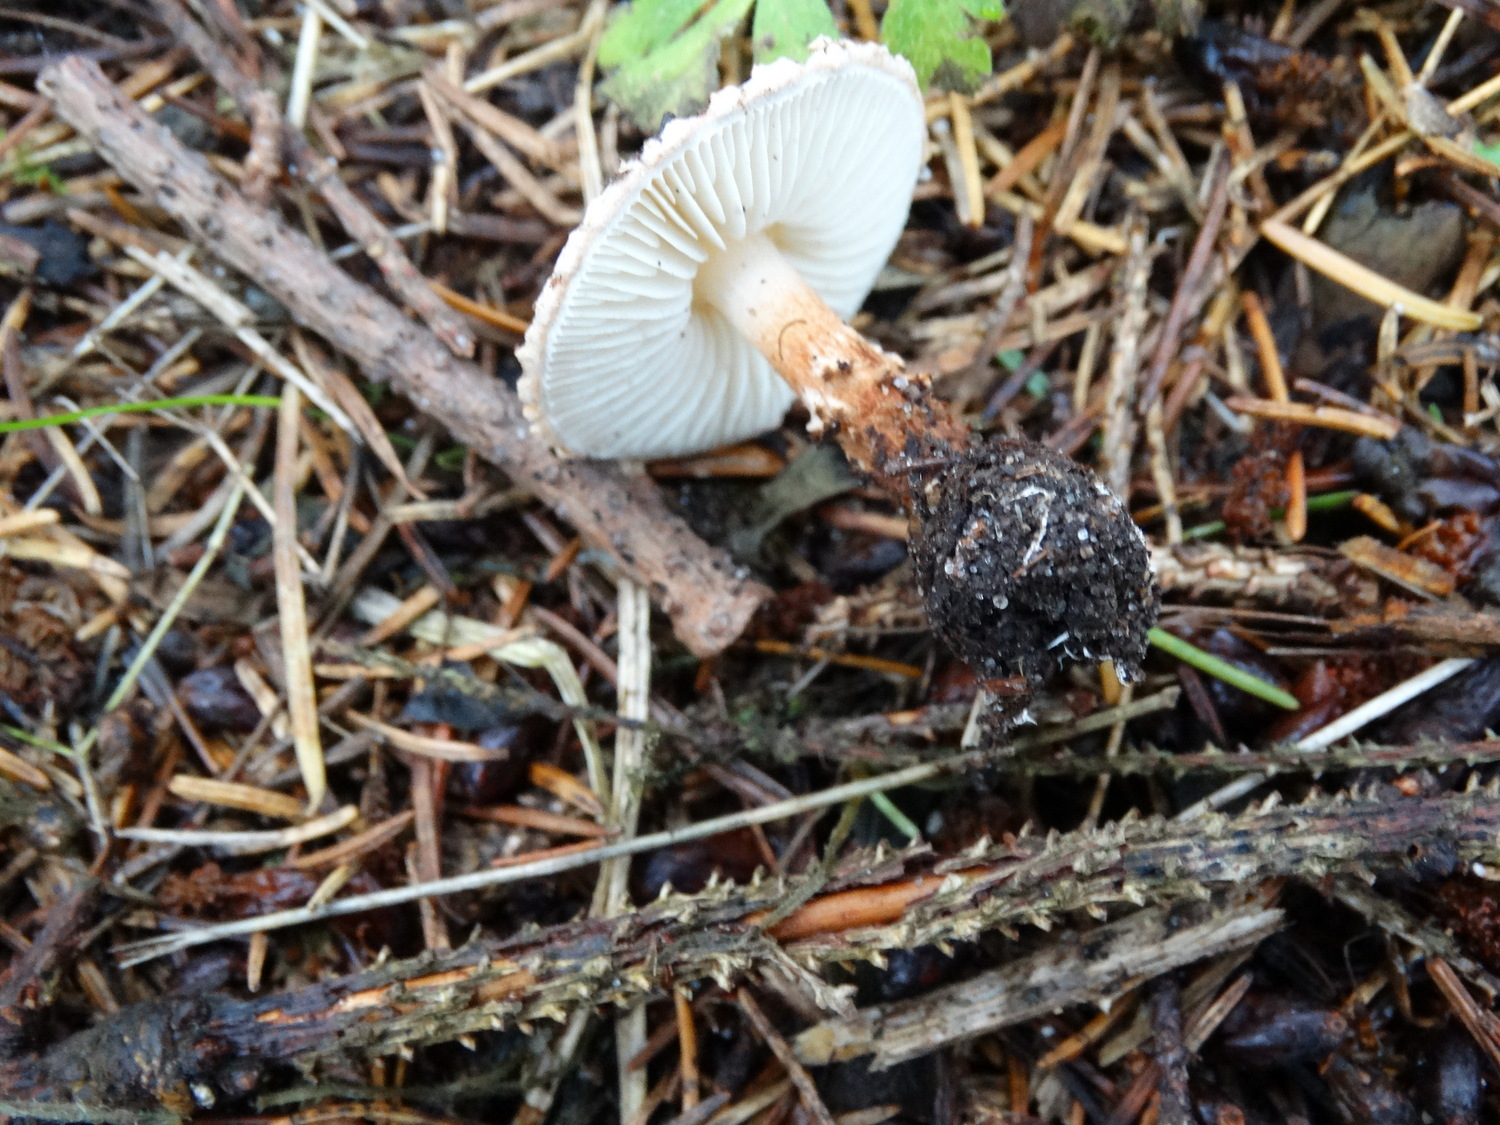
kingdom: Fungi
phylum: Basidiomycota
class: Agaricomycetes
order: Agaricales
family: Agaricaceae
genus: Lepiota
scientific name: Lepiota castanea
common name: kastaniebrun parasolhat
